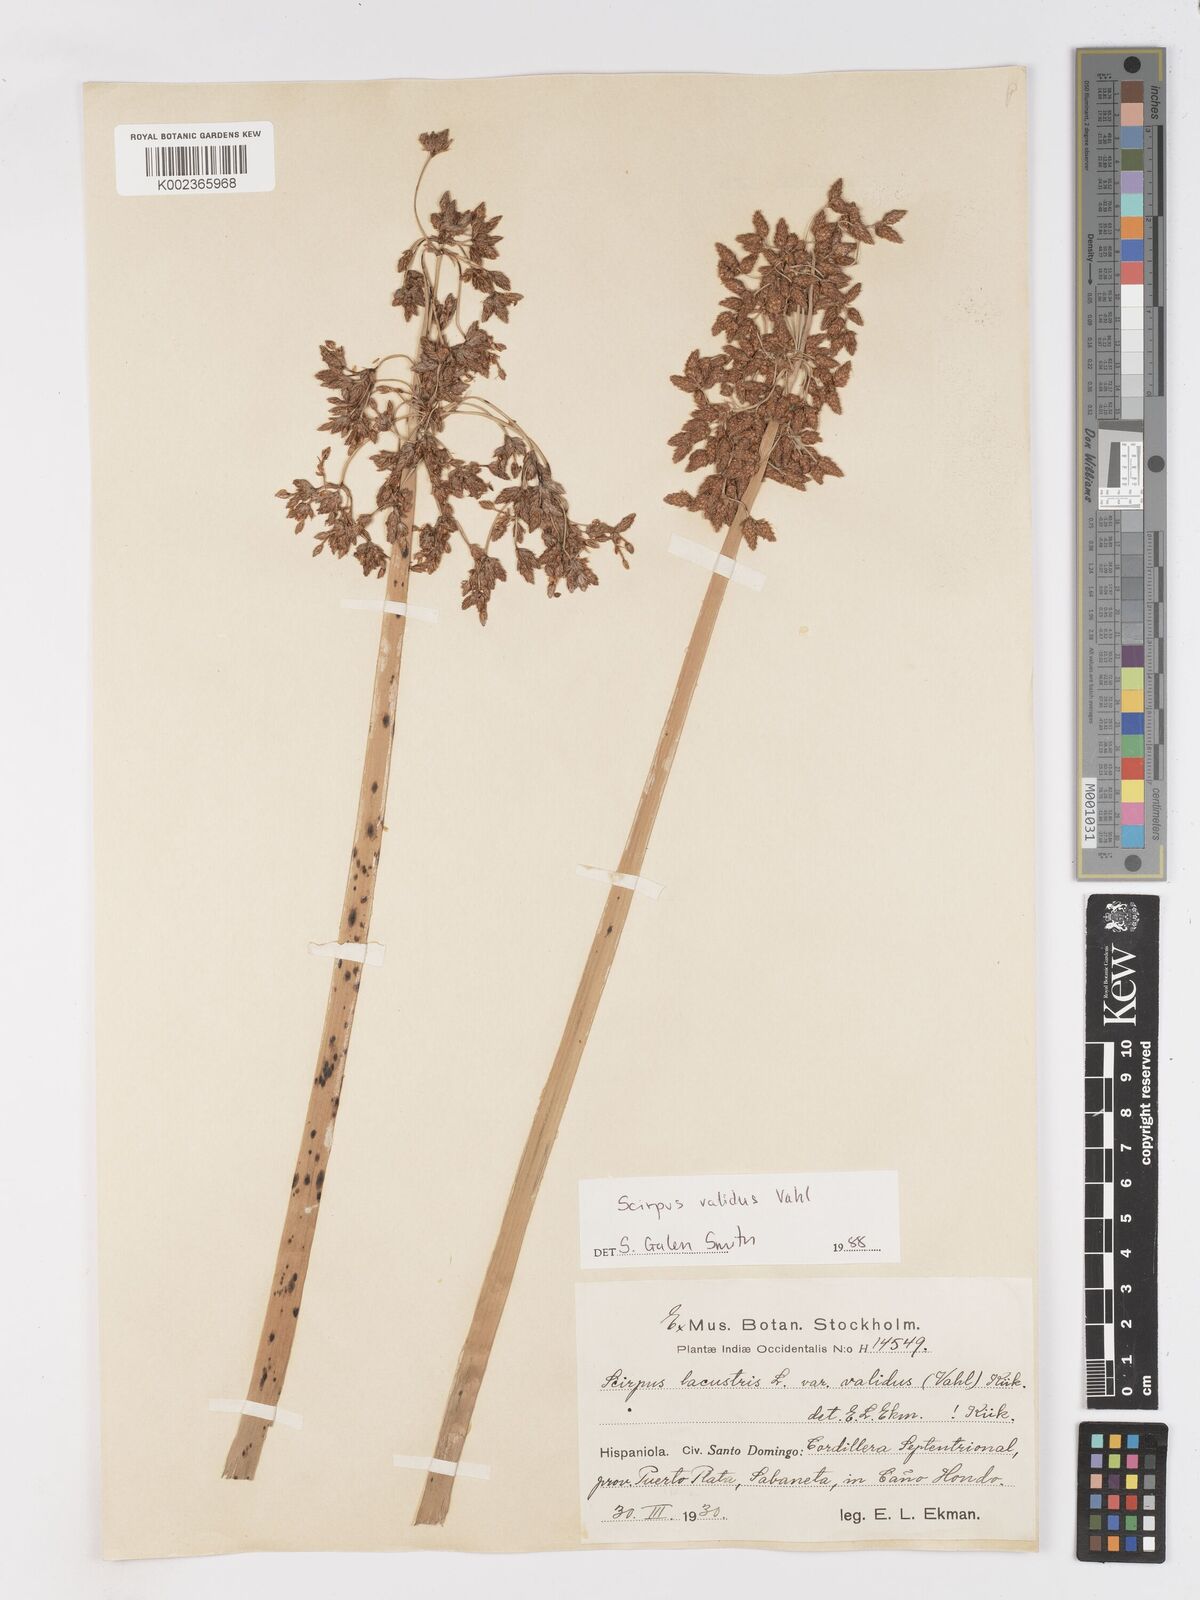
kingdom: Plantae
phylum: Tracheophyta
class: Liliopsida
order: Poales
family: Cyperaceae
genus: Schoenoplectus
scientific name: Schoenoplectus lacustris
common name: Common club-rush
